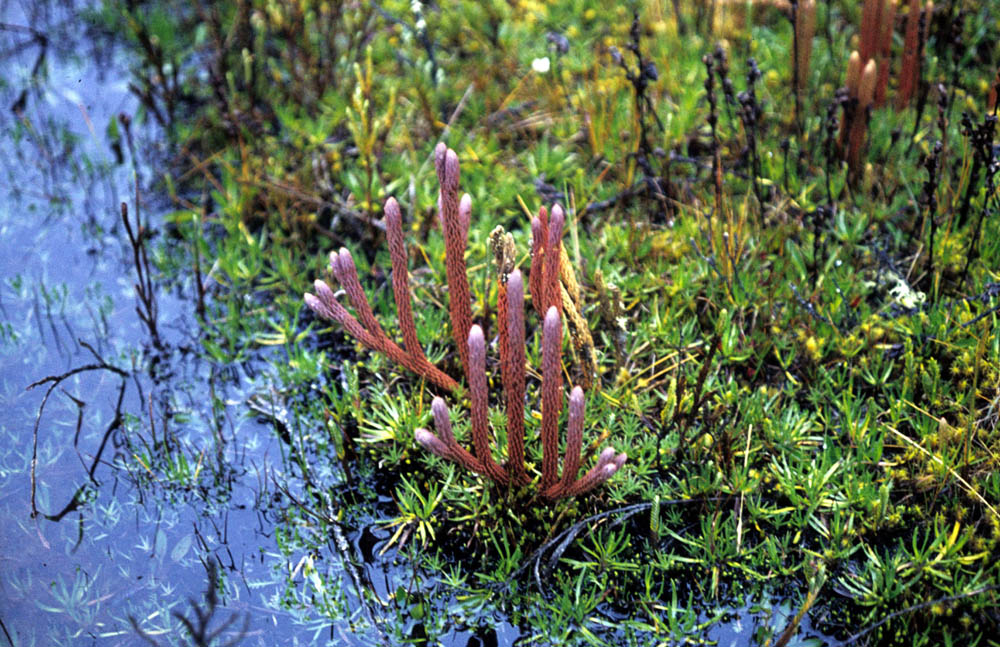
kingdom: Plantae
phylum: Tracheophyta
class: Lycopodiopsida
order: Lycopodiales
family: Lycopodiaceae
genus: Phlegmariurus
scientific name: Phlegmariurus crassus
